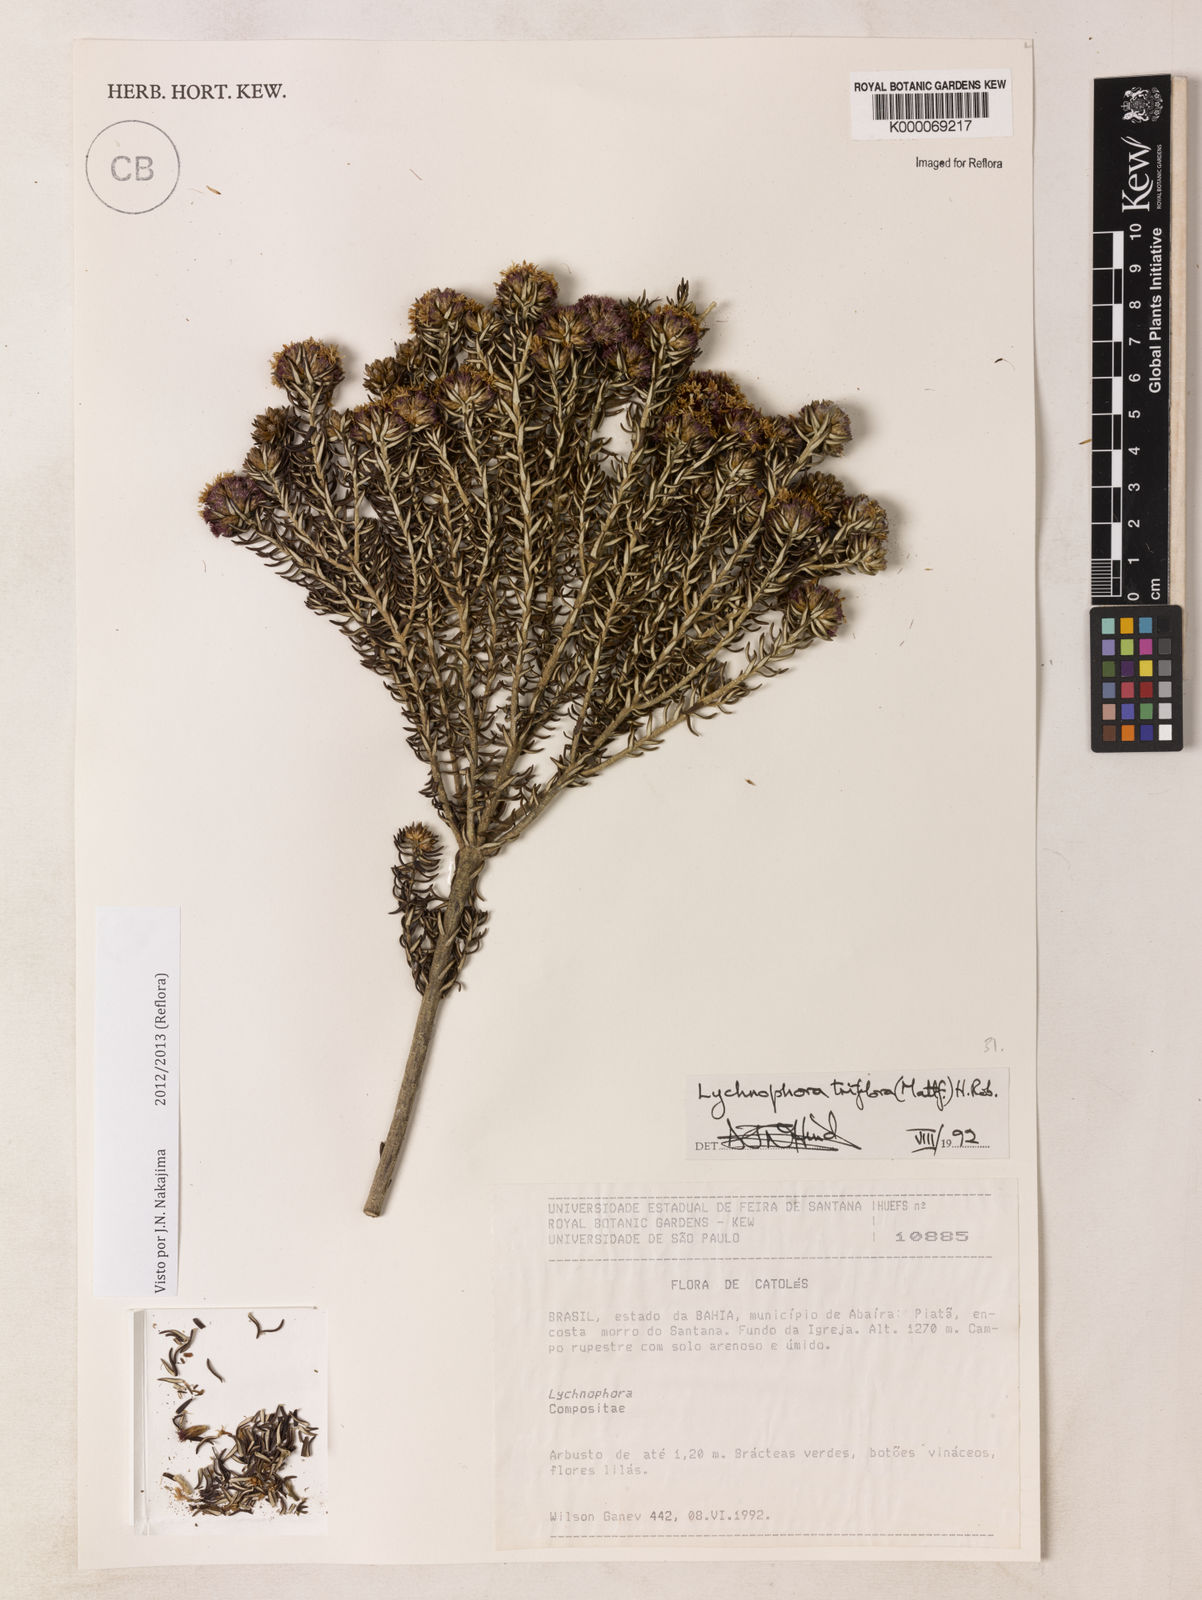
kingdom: Plantae
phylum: Tracheophyta
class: Magnoliopsida
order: Asterales
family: Asteraceae
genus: Lychnophorella
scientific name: Lychnophorella triflora
